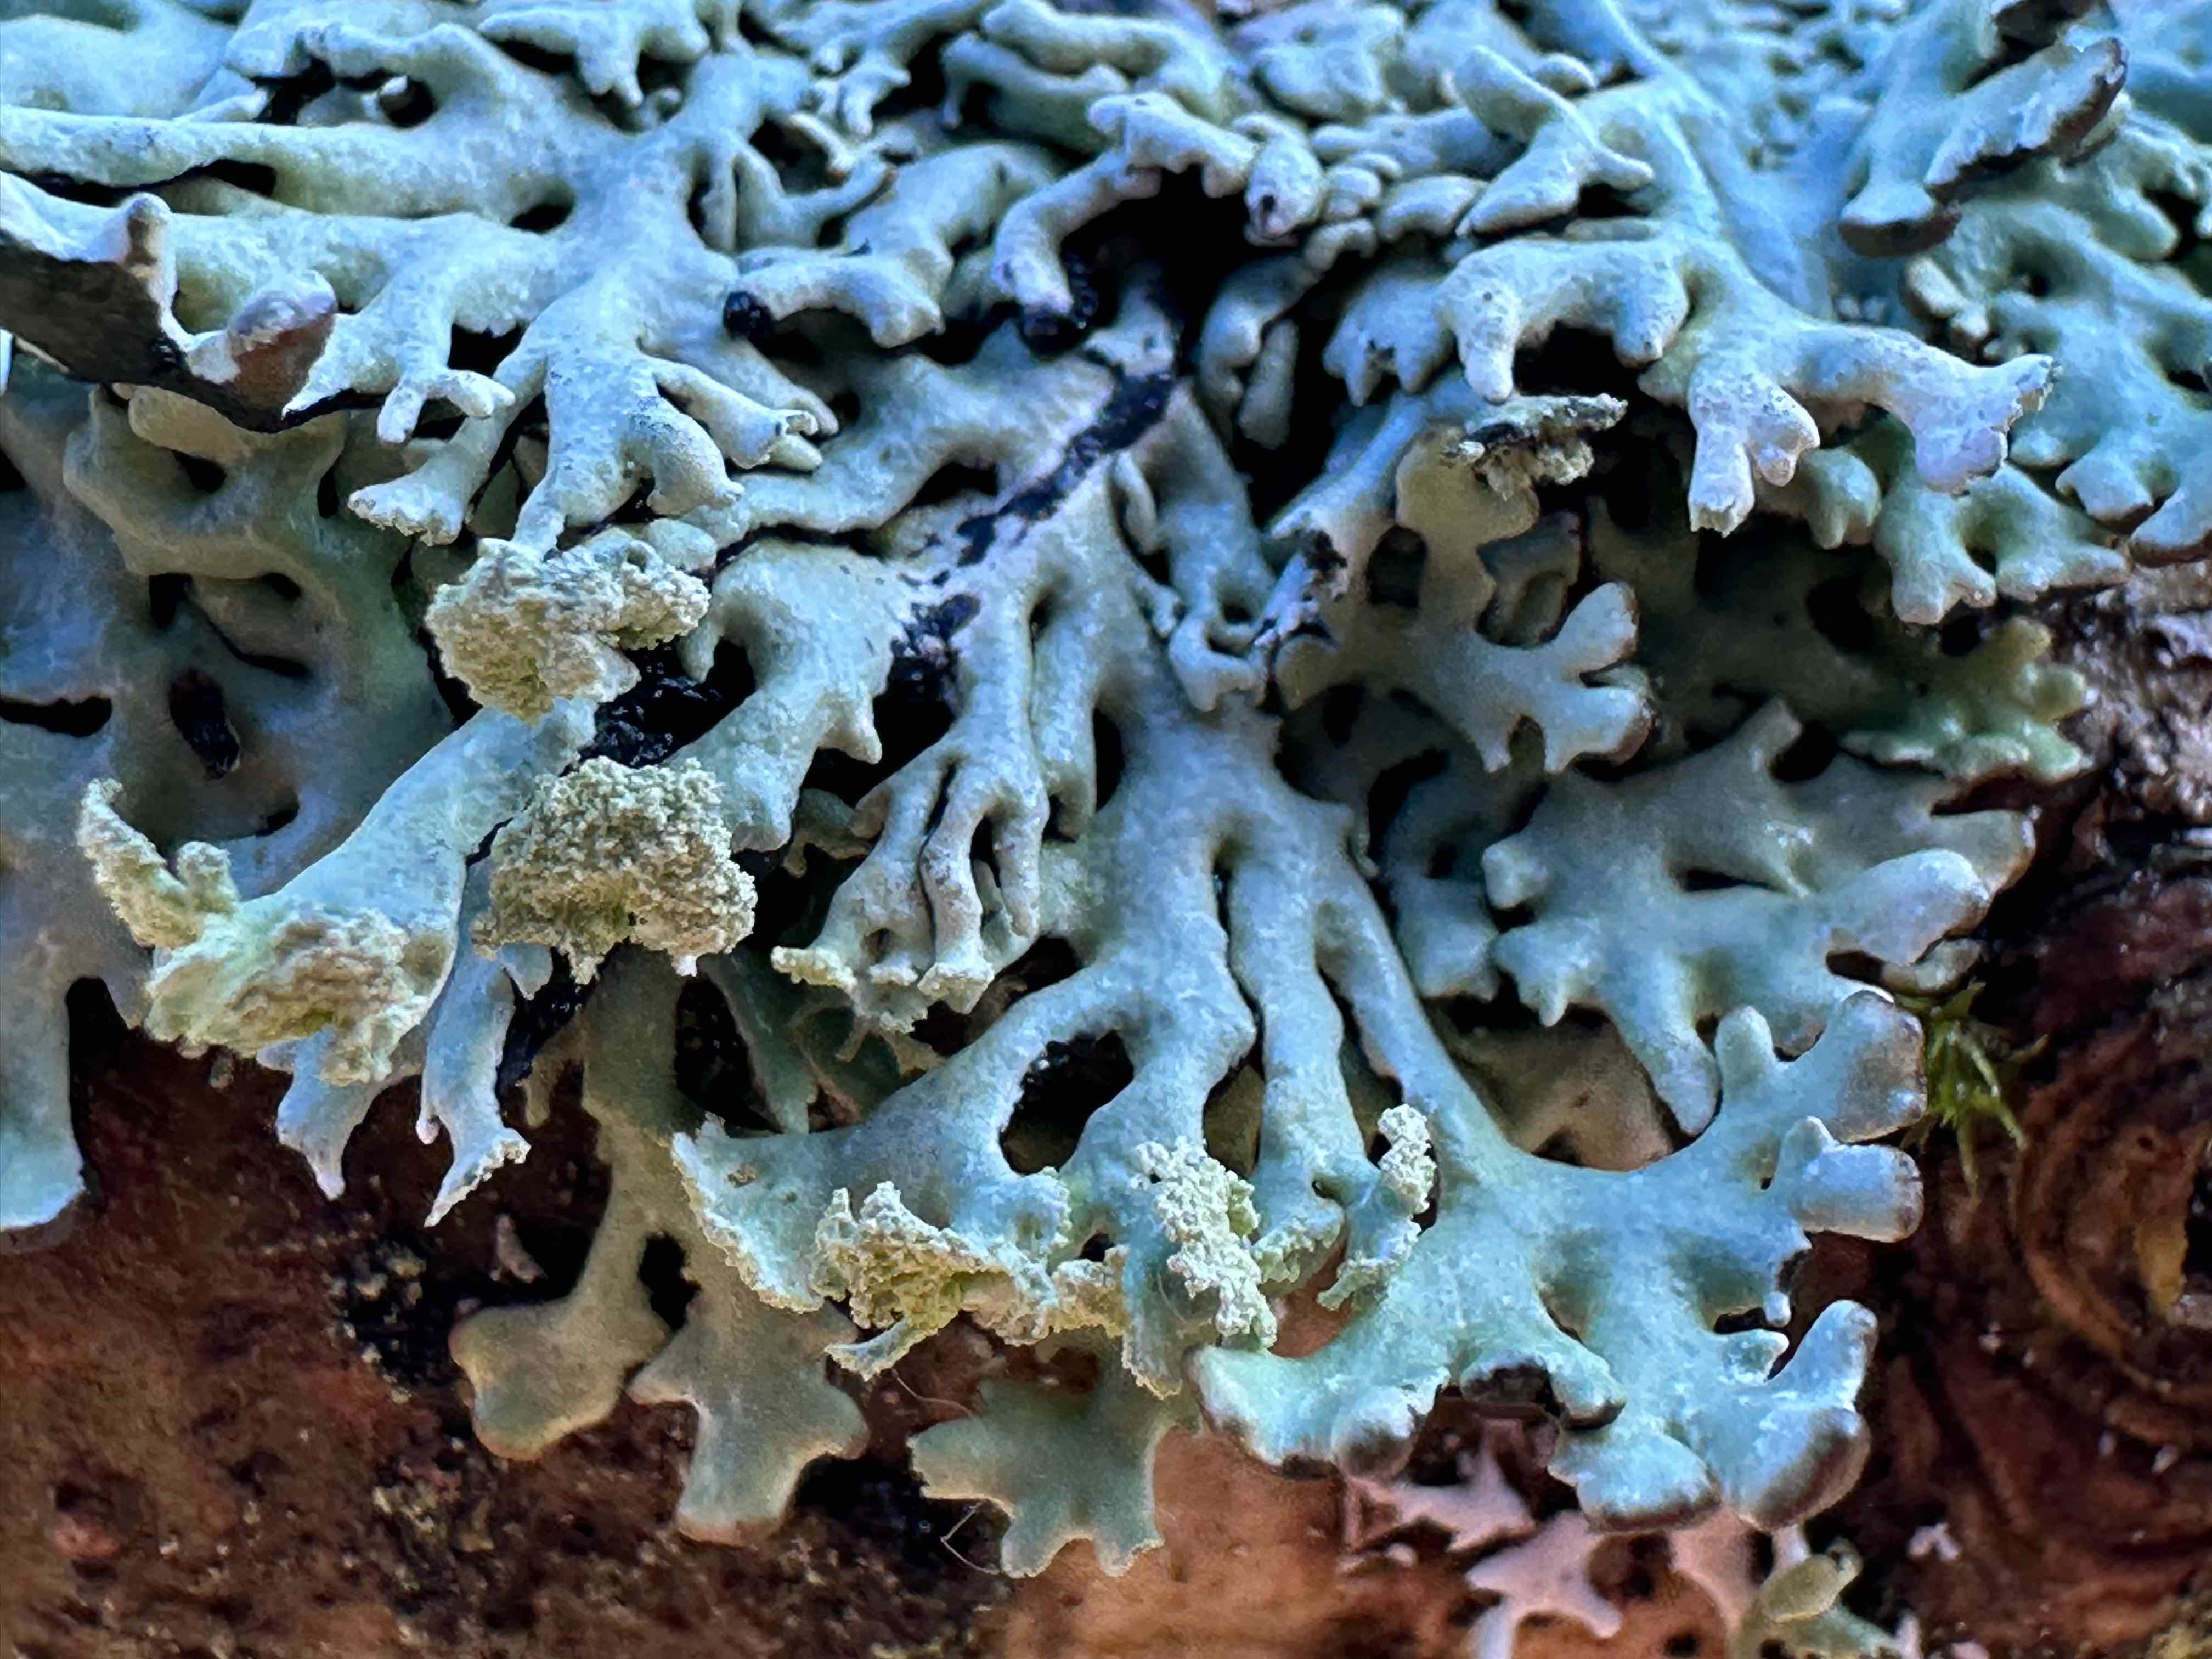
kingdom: Fungi
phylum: Ascomycota
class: Lecanoromycetes
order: Lecanorales
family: Parmeliaceae
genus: Hypogymnia
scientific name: Hypogymnia physodes
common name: almindelig kvistlav
